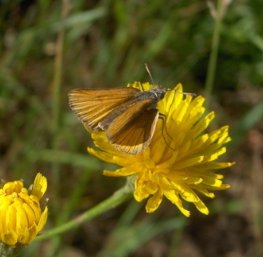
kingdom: Animalia
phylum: Arthropoda
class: Insecta
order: Lepidoptera
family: Hesperiidae
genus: Thymelicus
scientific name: Thymelicus lineola
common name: European Skipper
